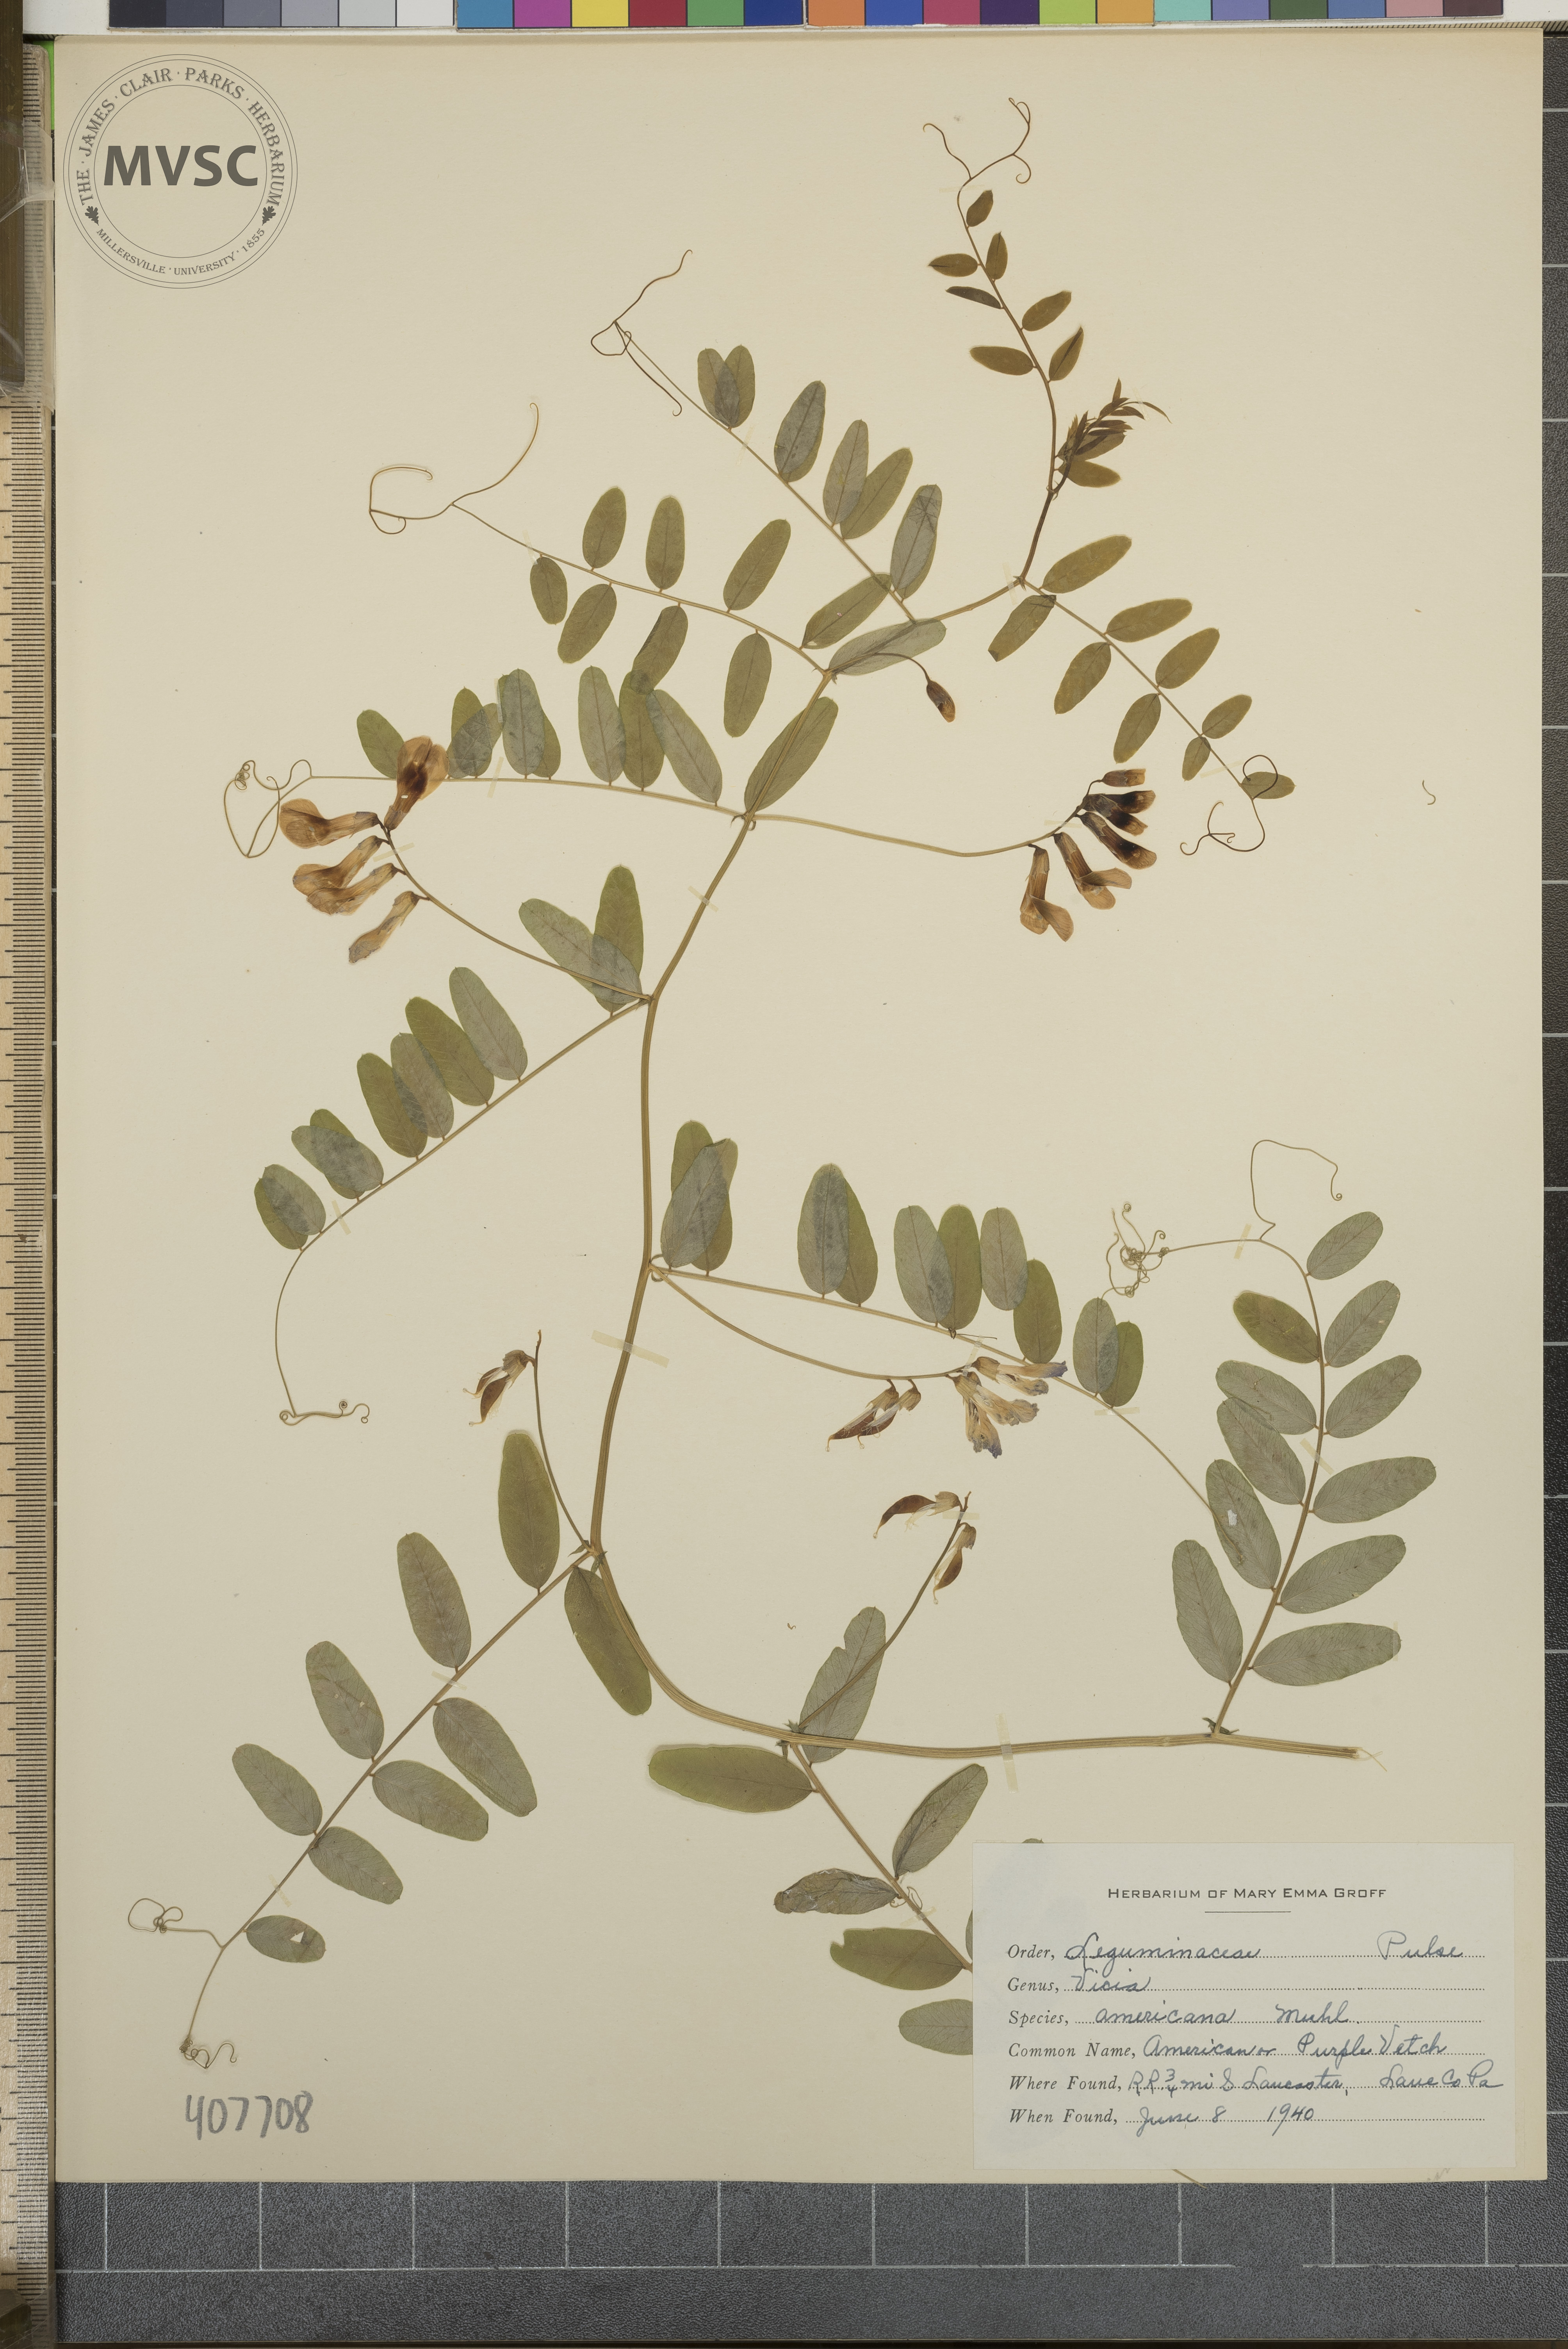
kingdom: Plantae
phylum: Tracheophyta
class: Magnoliopsida
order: Fabales
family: Fabaceae
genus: Vicia
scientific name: Vicia americana
